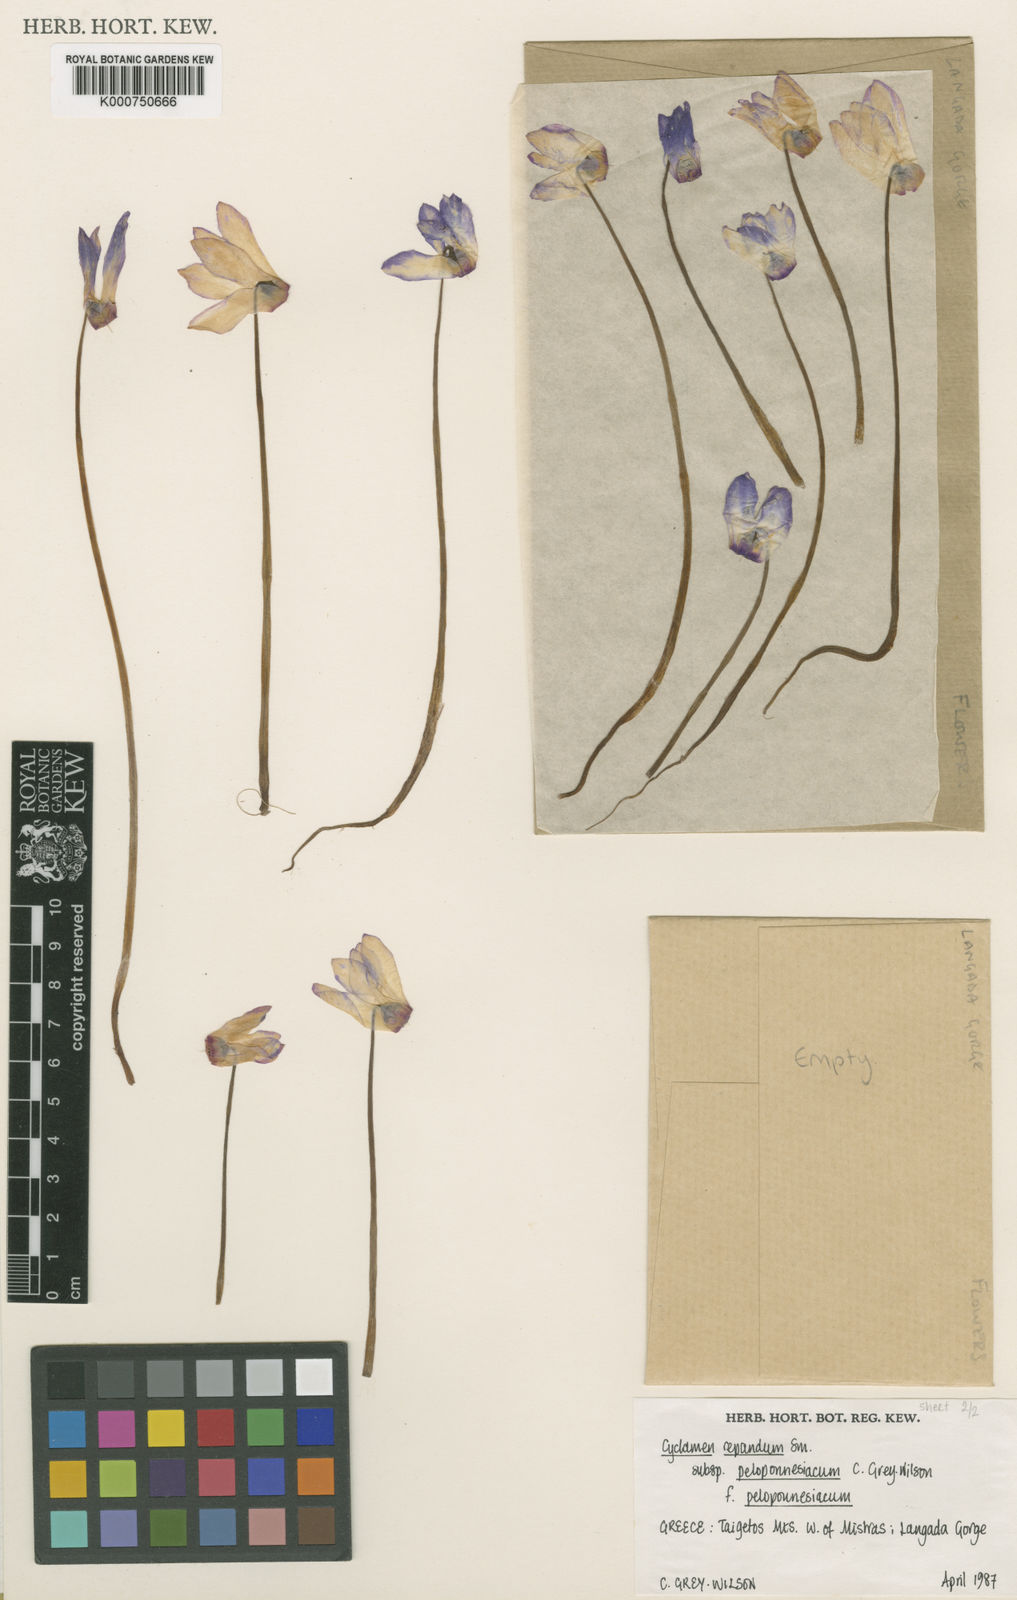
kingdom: Plantae
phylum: Tracheophyta
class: Magnoliopsida
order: Ericales
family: Primulaceae
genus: Cyclamen
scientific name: Cyclamen repandum
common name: Spring sowbread
